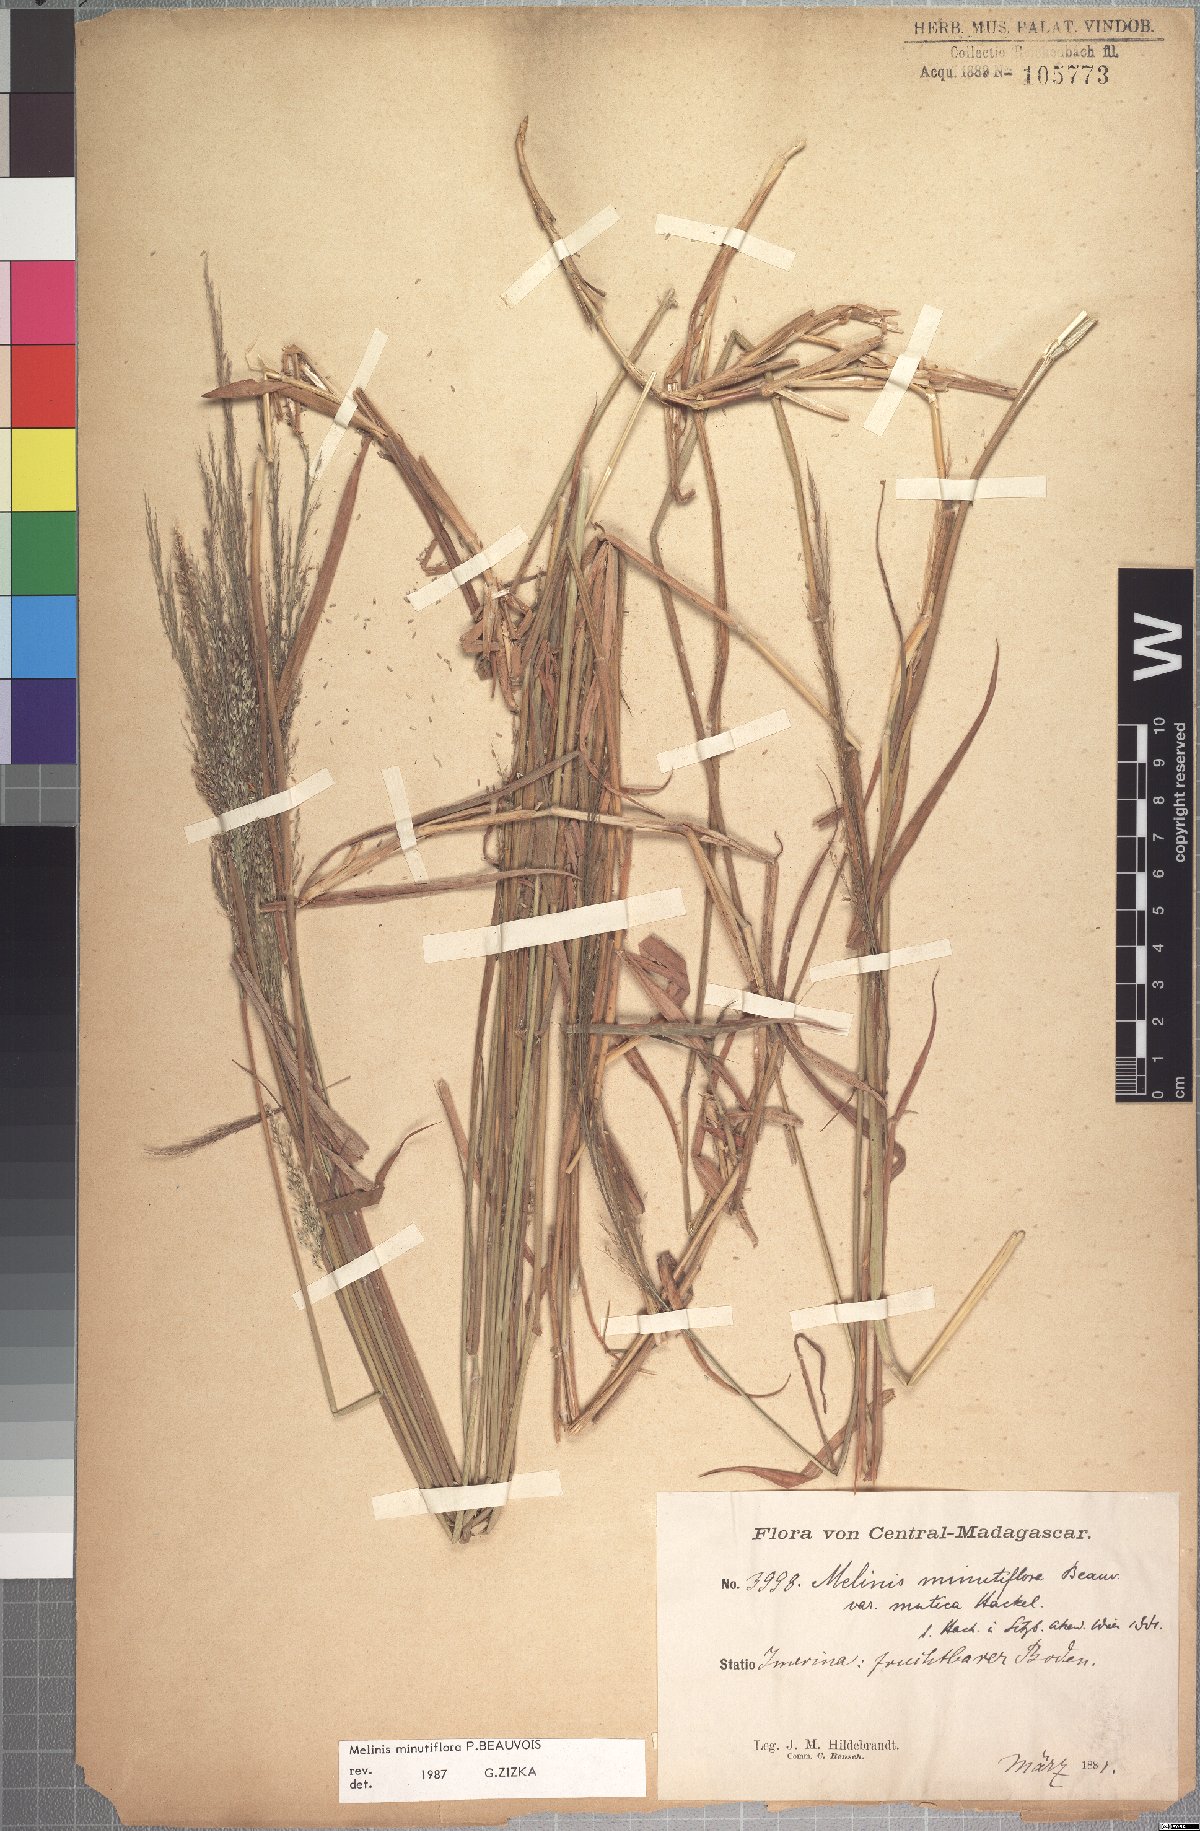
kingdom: Plantae
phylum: Tracheophyta
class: Liliopsida
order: Poales
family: Poaceae
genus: Melinis
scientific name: Melinis minutiflora
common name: Molassesgrass
